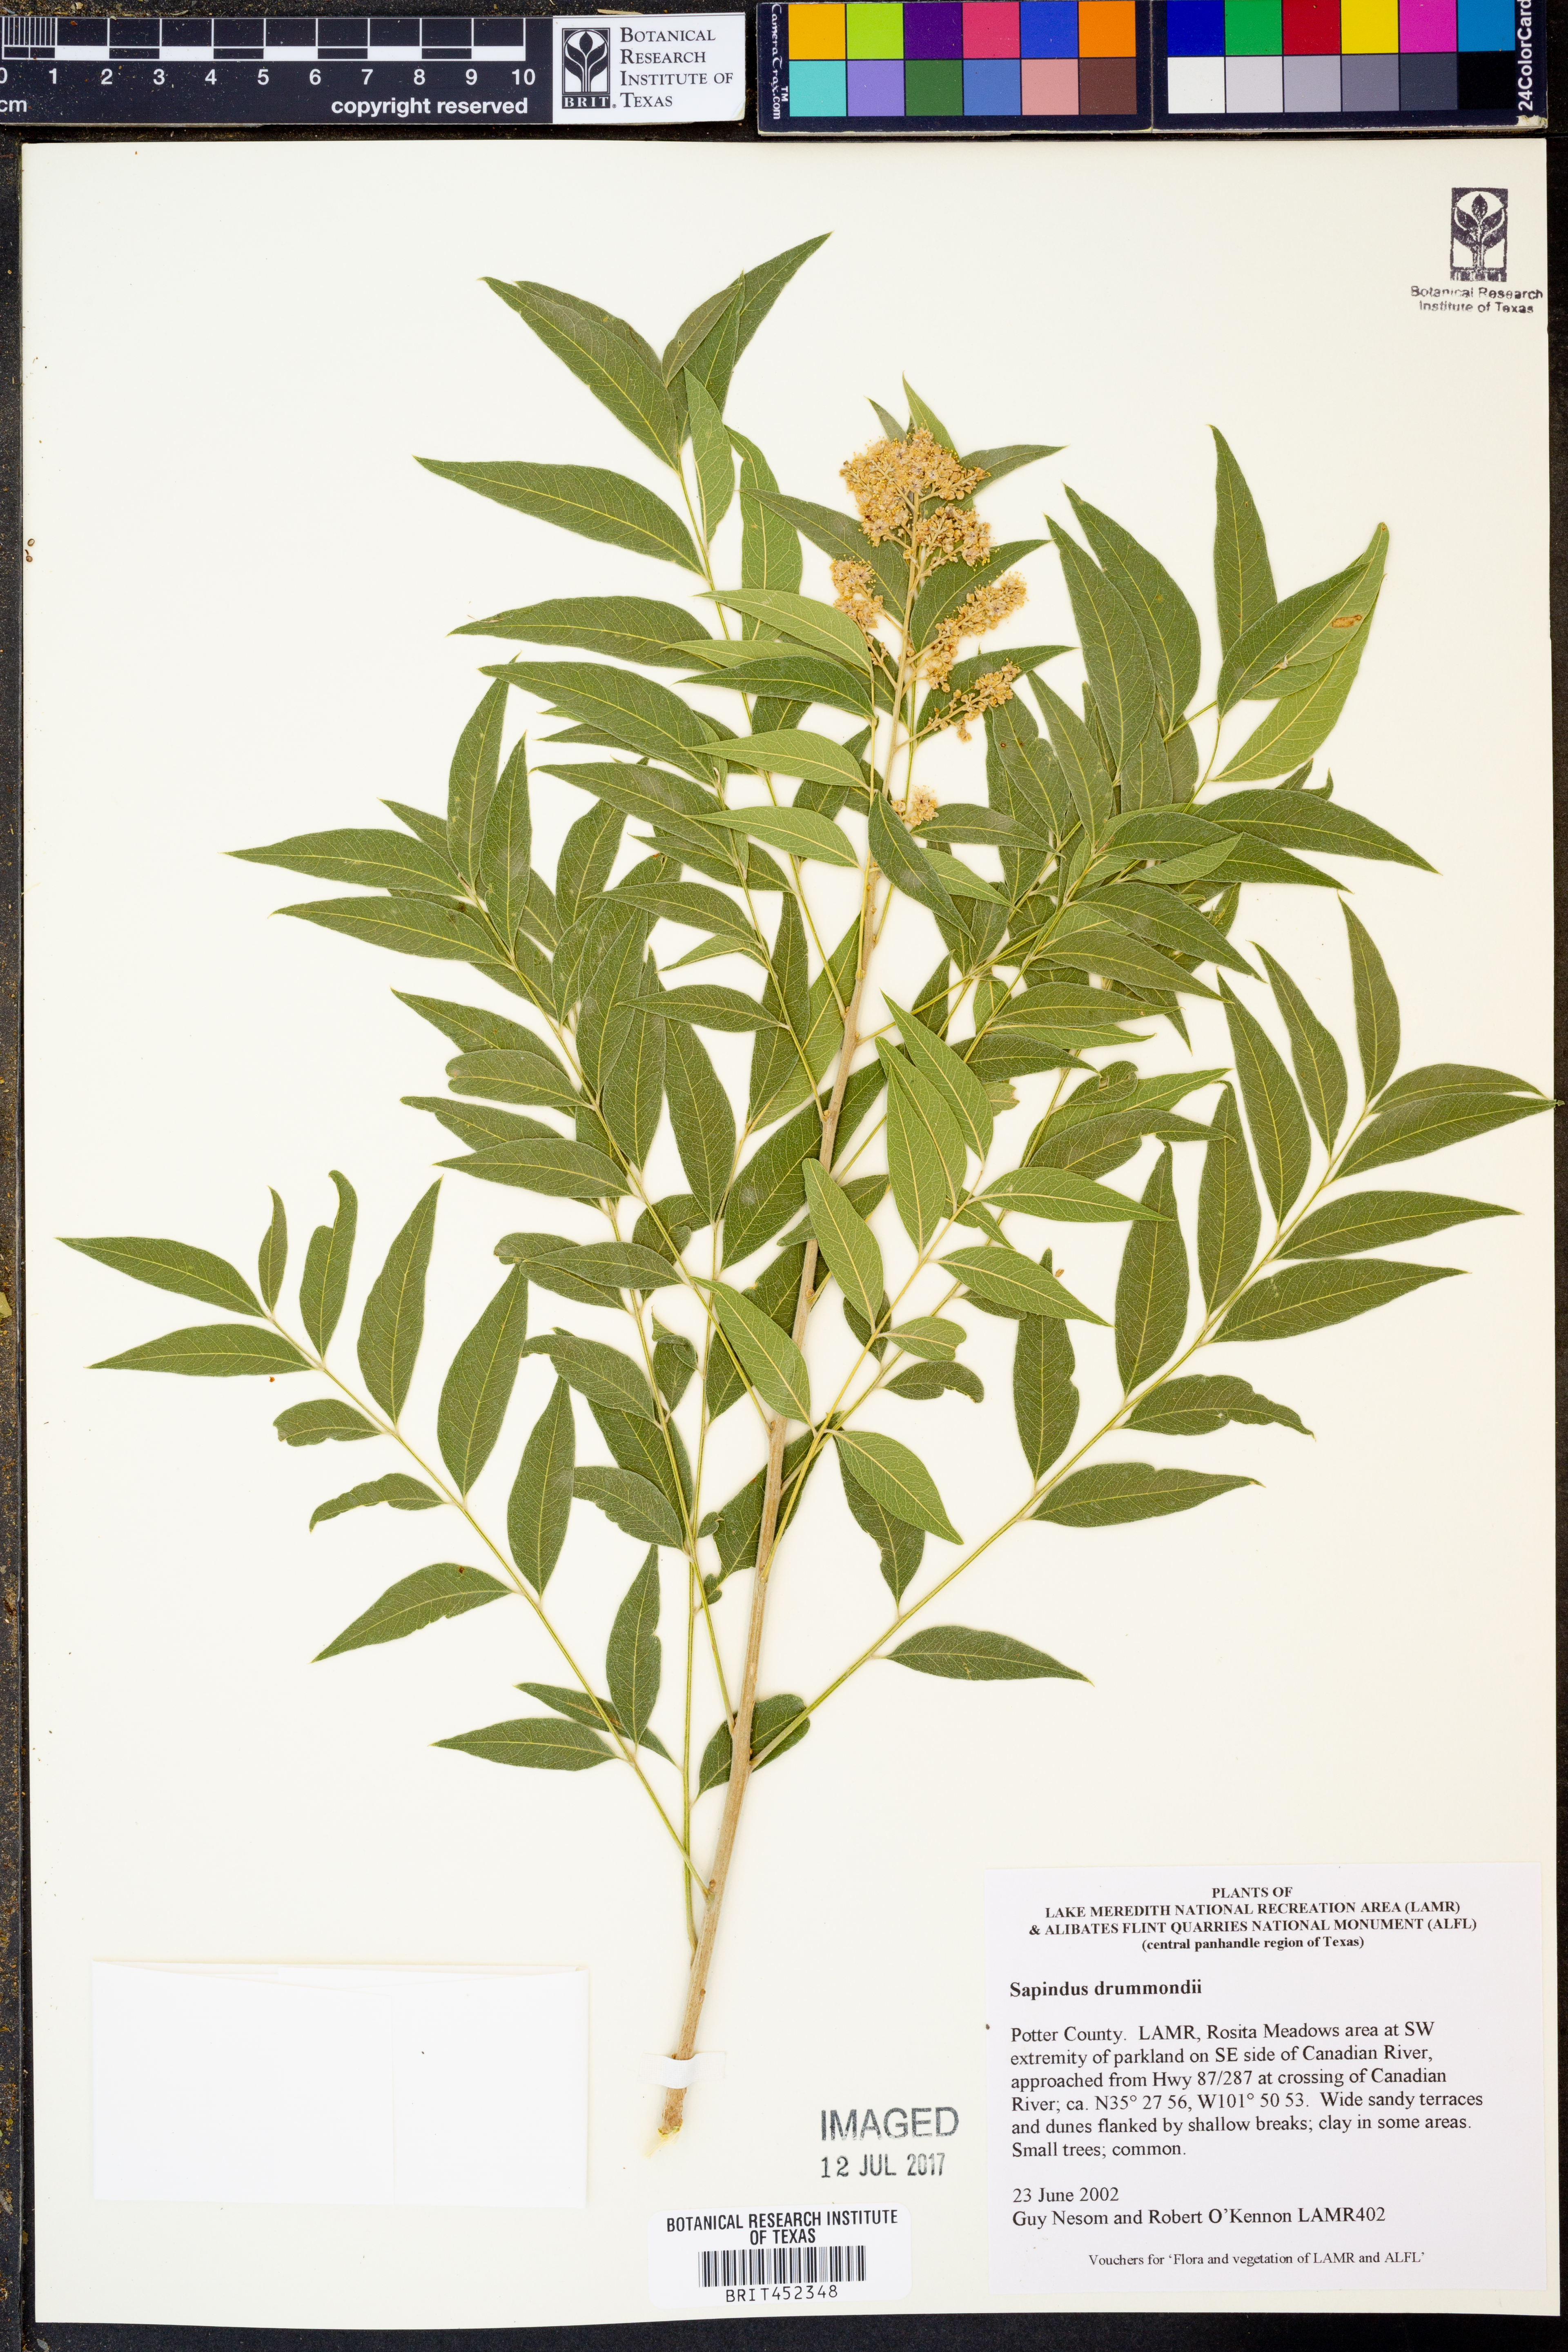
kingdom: Plantae
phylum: Tracheophyta
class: Magnoliopsida
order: Sapindales
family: Sapindaceae
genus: Sapindus
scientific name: Sapindus drummondii
